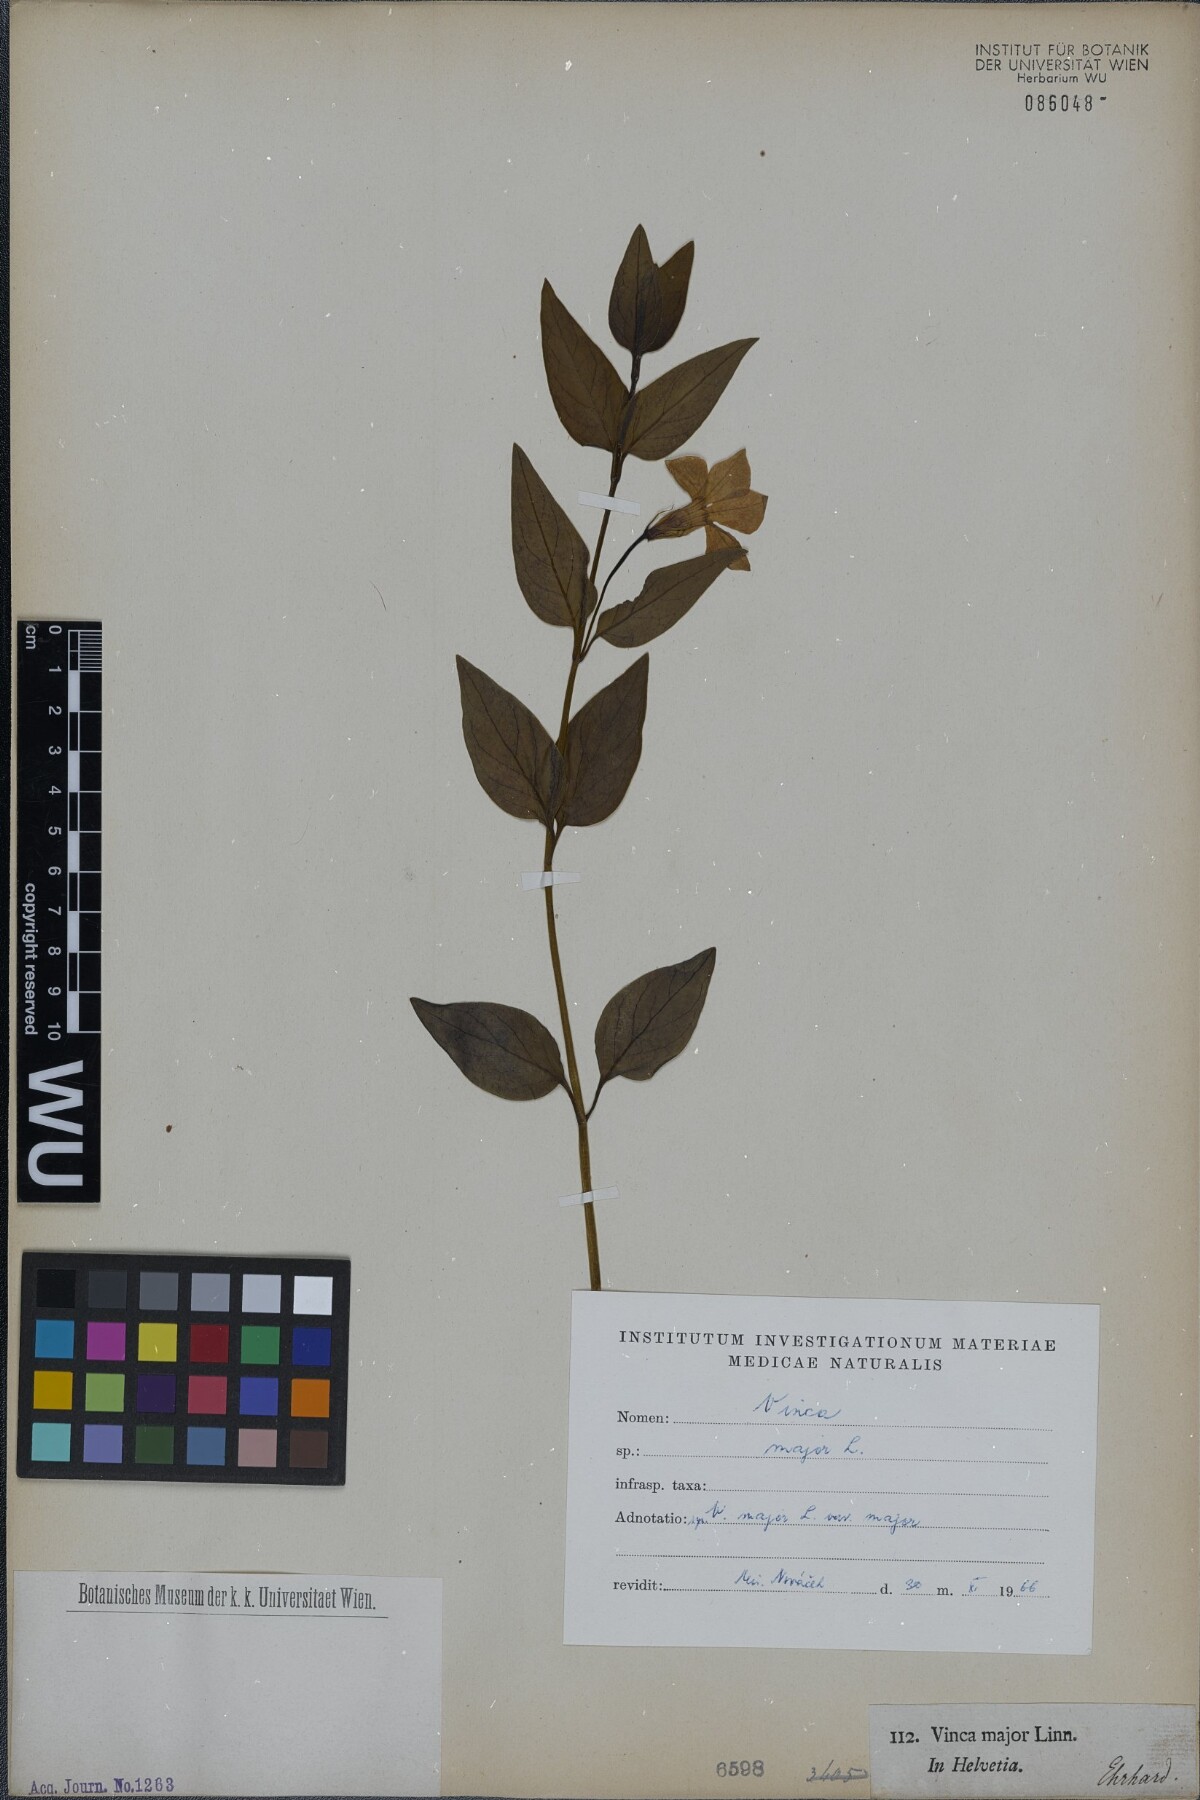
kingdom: Plantae
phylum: Tracheophyta
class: Magnoliopsida
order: Gentianales
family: Apocynaceae
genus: Vinca
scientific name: Vinca major
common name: Greater periwinkle
